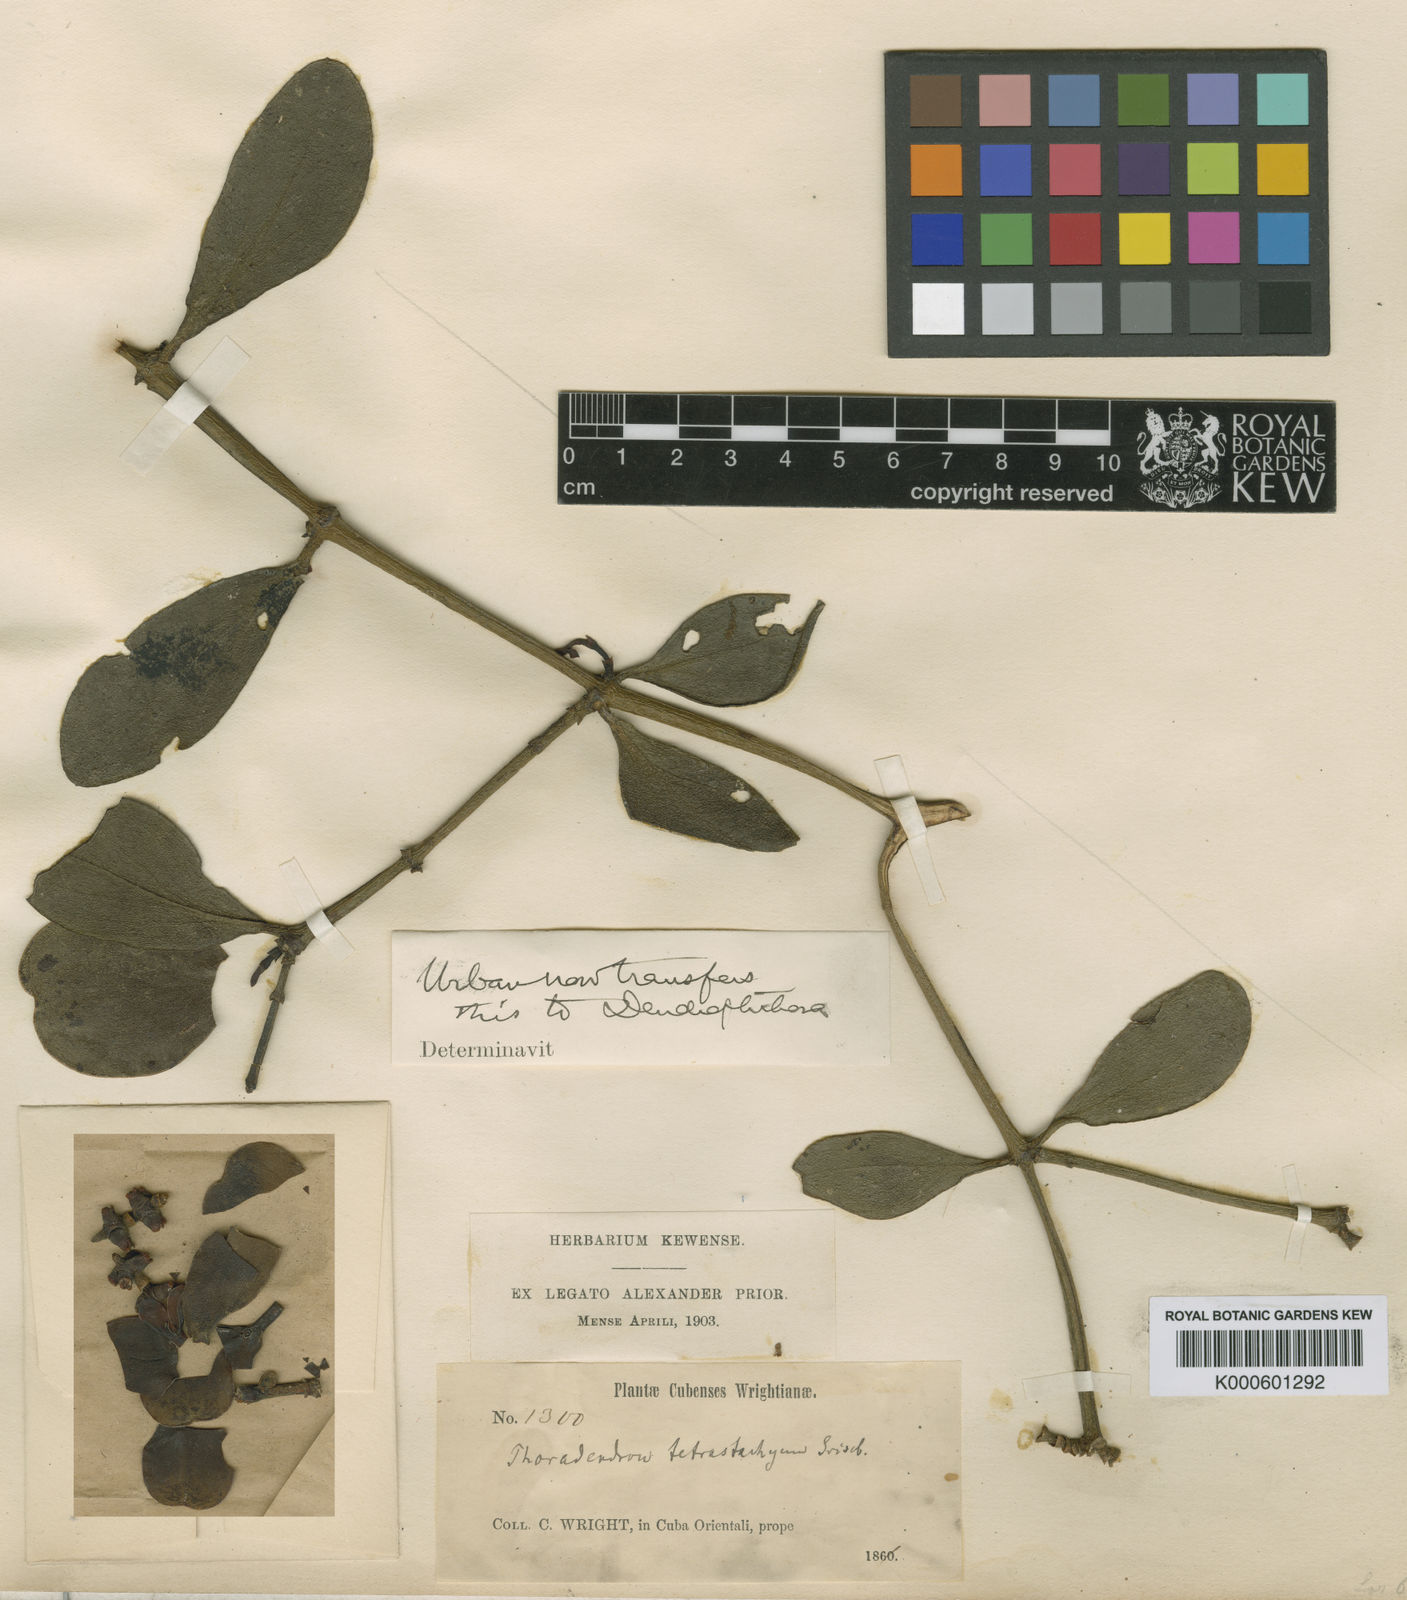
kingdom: Plantae
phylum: Tracheophyta
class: Magnoliopsida
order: Santalales
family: Viscaceae
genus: Dendrophthora
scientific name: Dendrophthora tetrastachya
